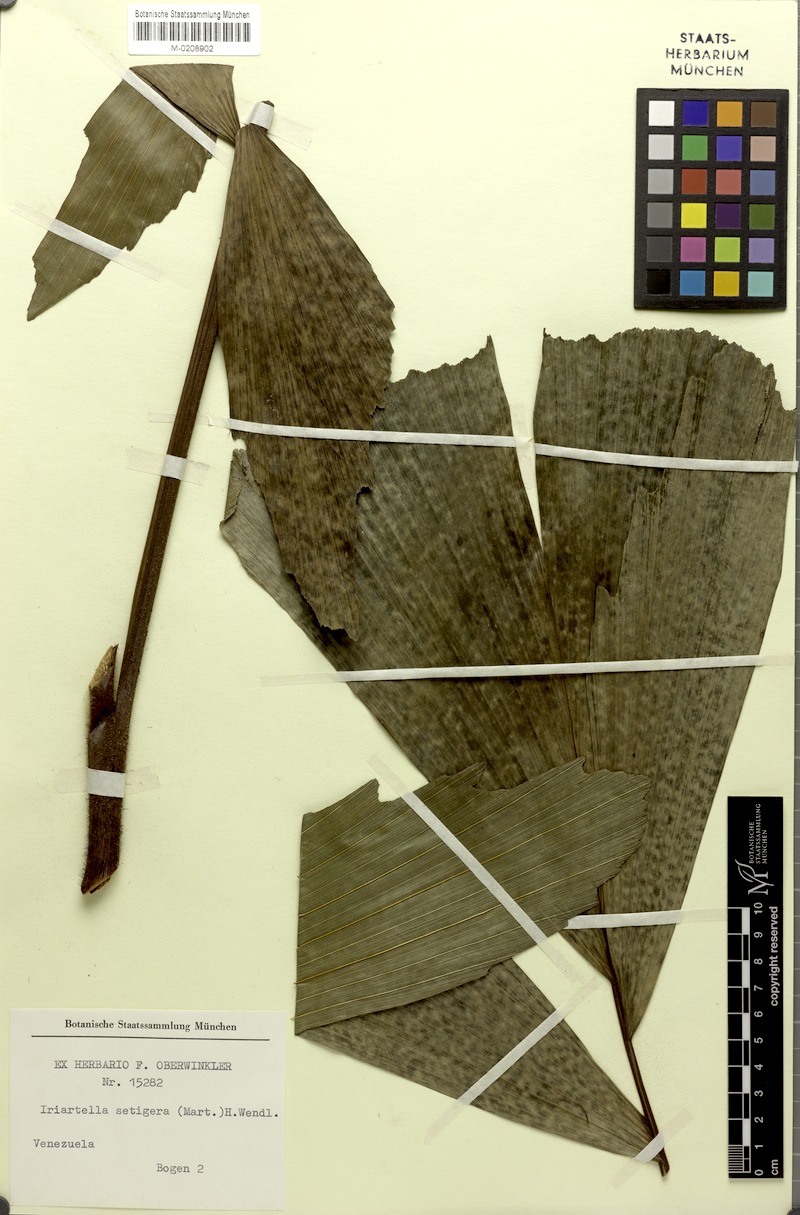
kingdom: Plantae
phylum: Tracheophyta
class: Liliopsida
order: Arecales
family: Arecaceae
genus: Iriartella
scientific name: Iriartella setigera
